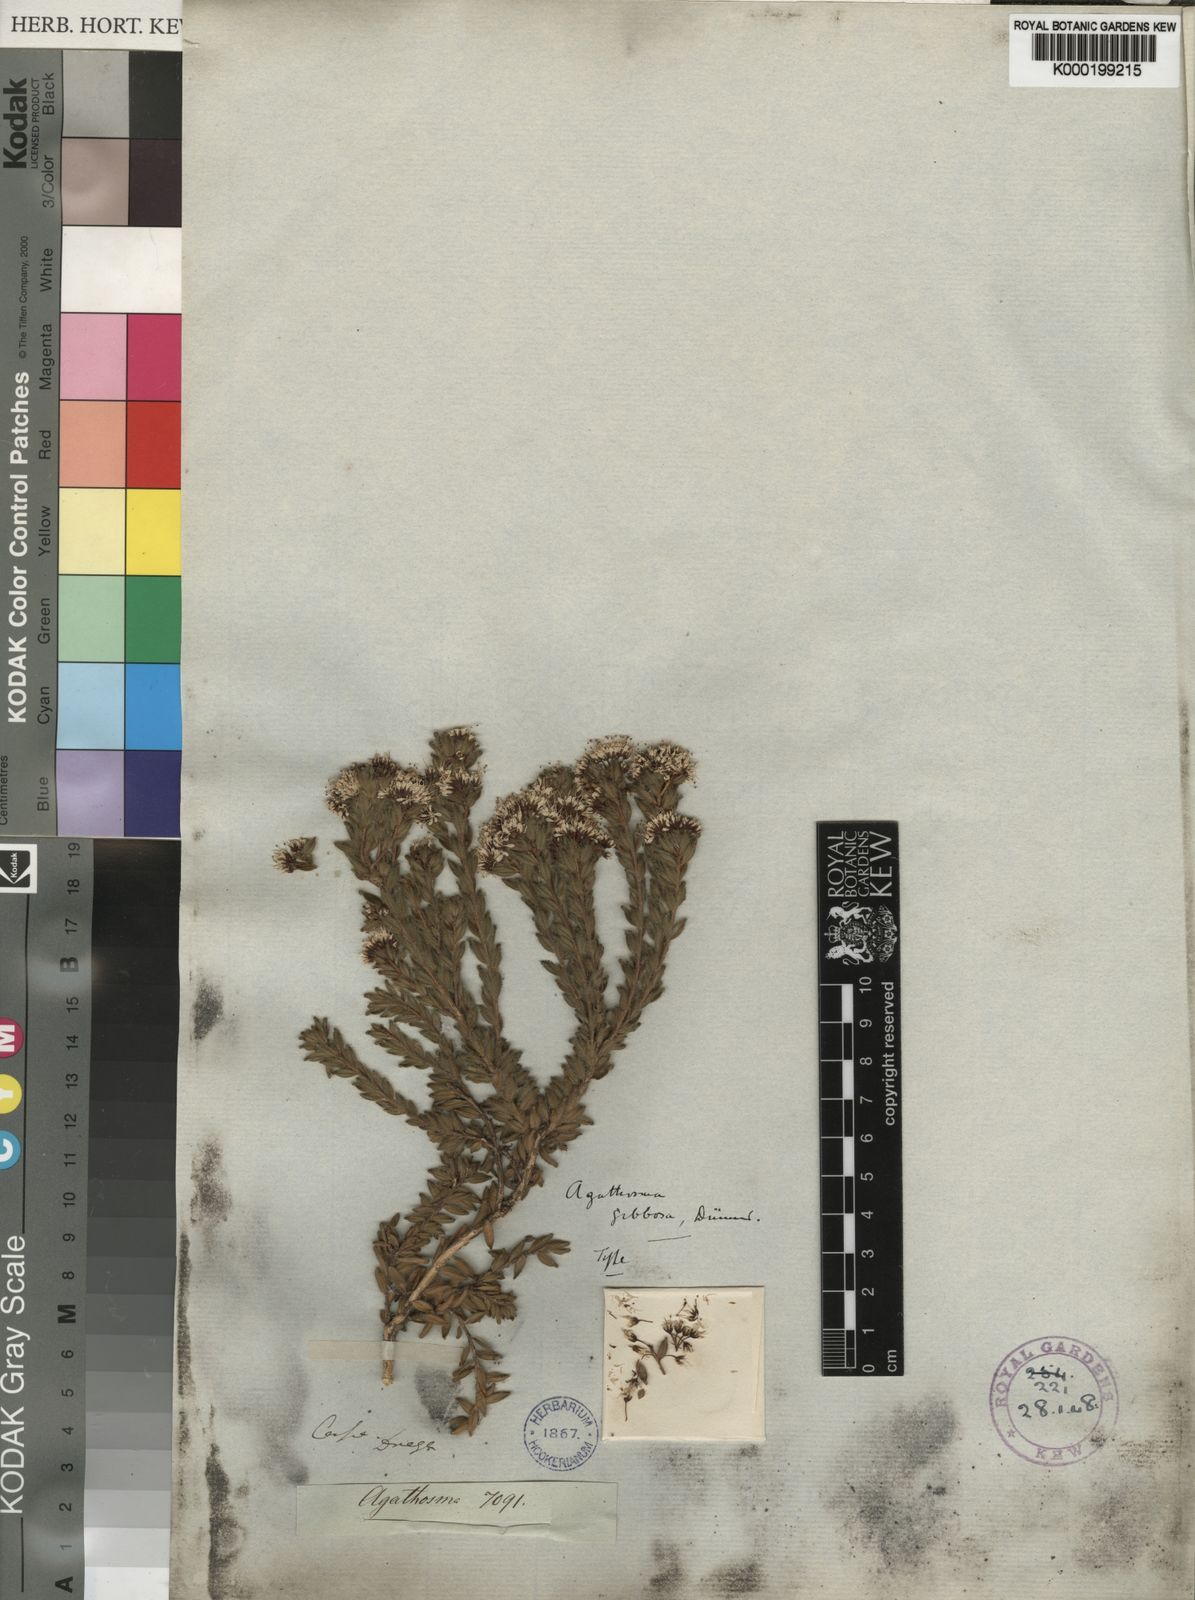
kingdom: Plantae
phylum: Tracheophyta
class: Magnoliopsida
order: Sapindales
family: Rutaceae
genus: Agathosma
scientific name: Agathosma
